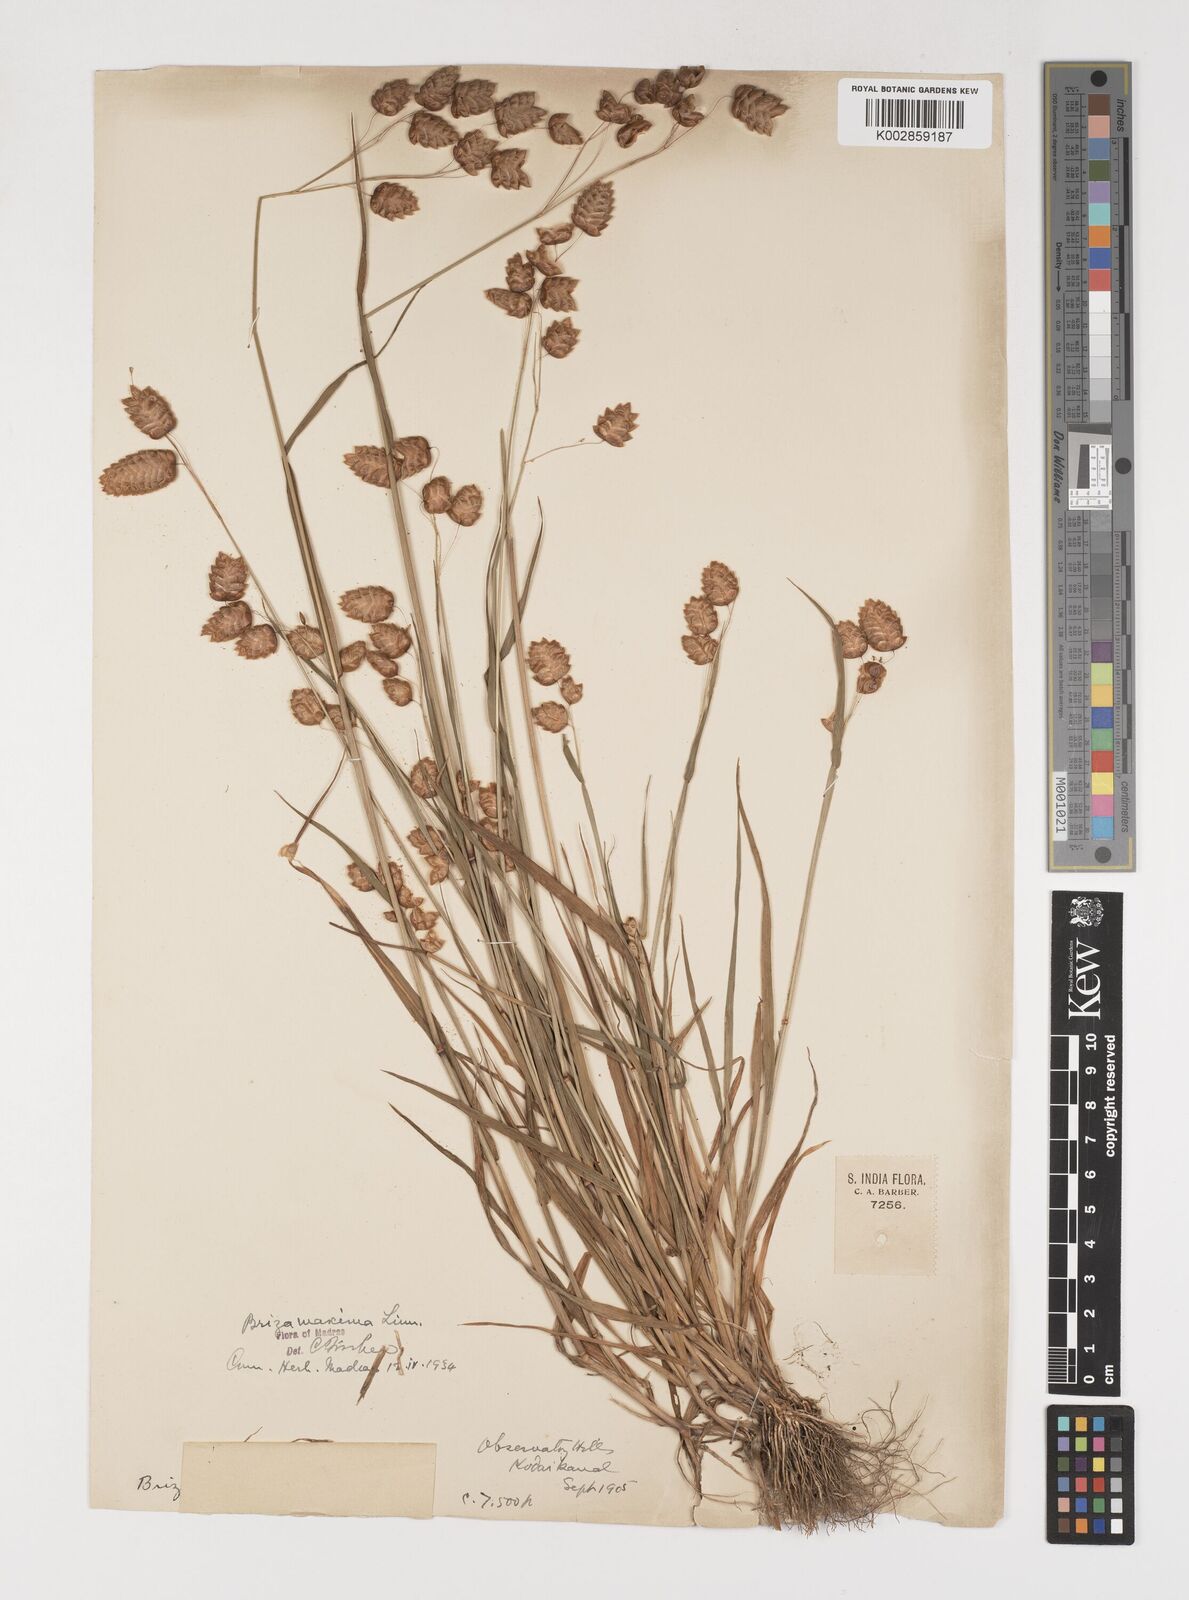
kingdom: Plantae
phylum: Tracheophyta
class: Liliopsida
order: Poales
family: Poaceae
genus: Briza
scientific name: Briza maxima
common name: Big quakinggrass
